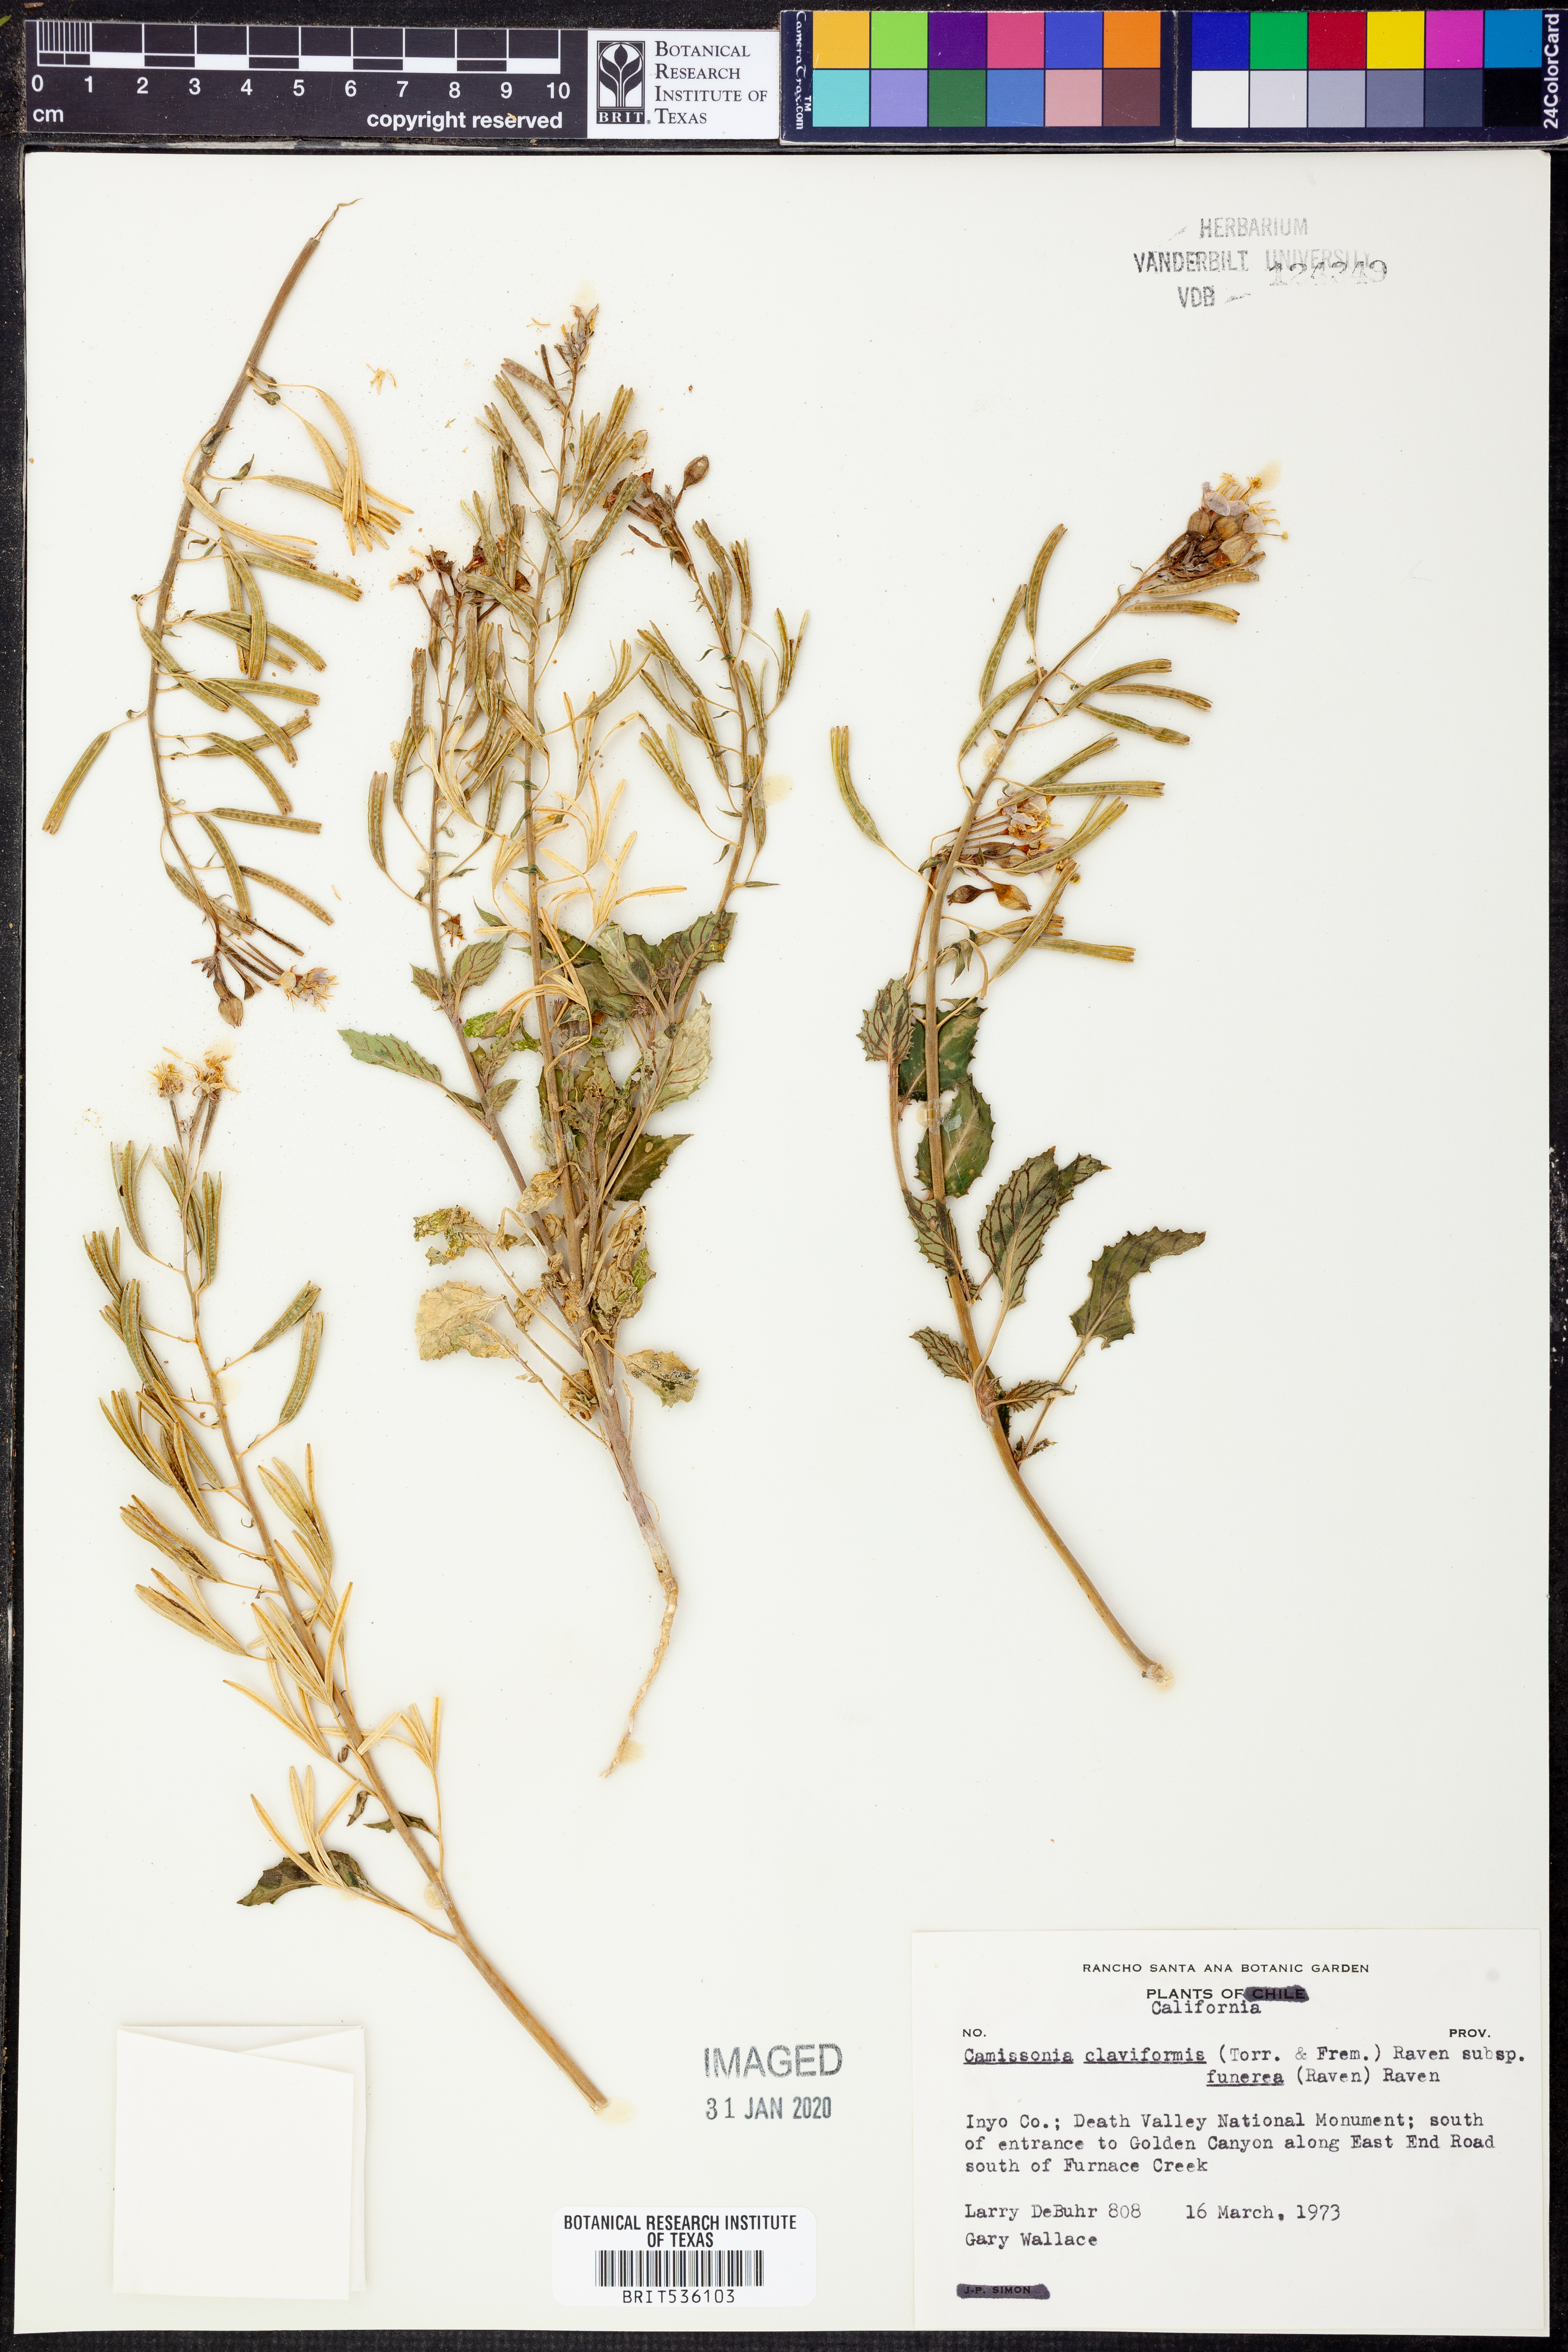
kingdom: Plantae
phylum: Tracheophyta
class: Magnoliopsida
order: Myrtales
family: Onagraceae
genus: Chylismia
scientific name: Chylismia claviformis
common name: Browneyes
